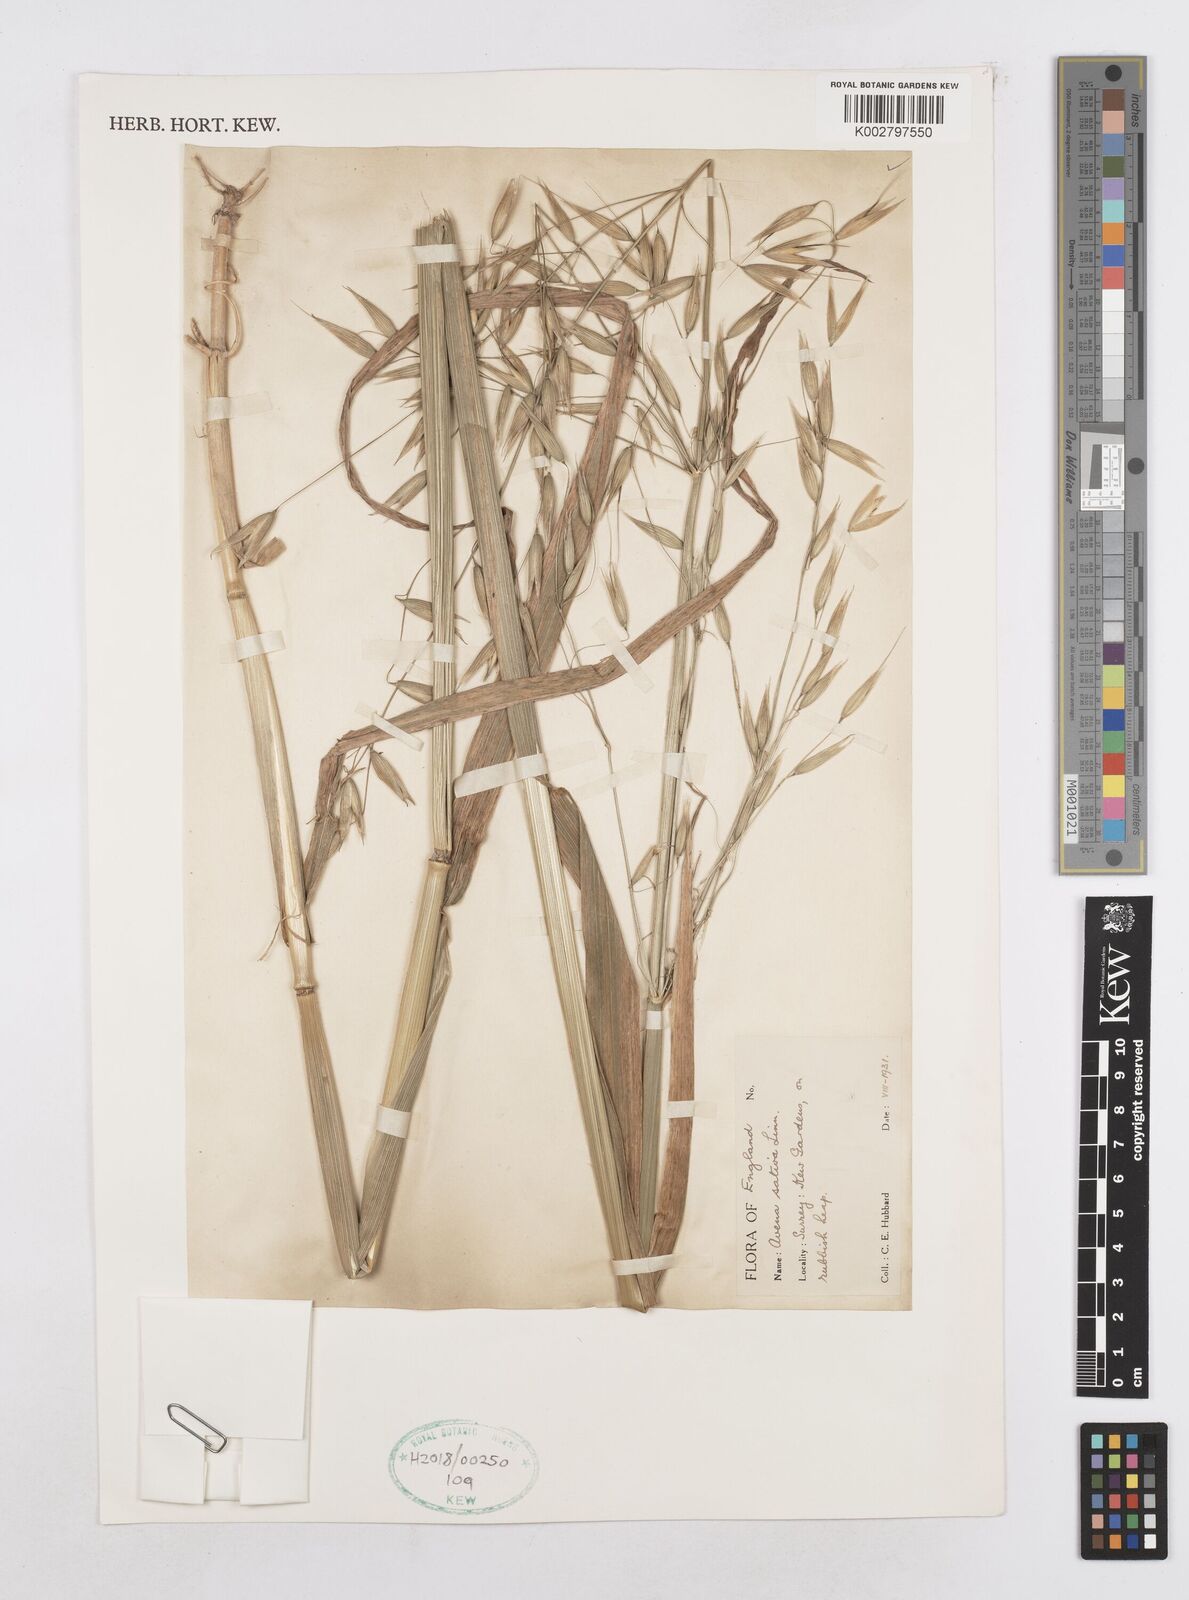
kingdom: Plantae
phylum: Tracheophyta
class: Liliopsida
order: Poales
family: Poaceae
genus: Avena
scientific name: Avena sativa
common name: Oat
